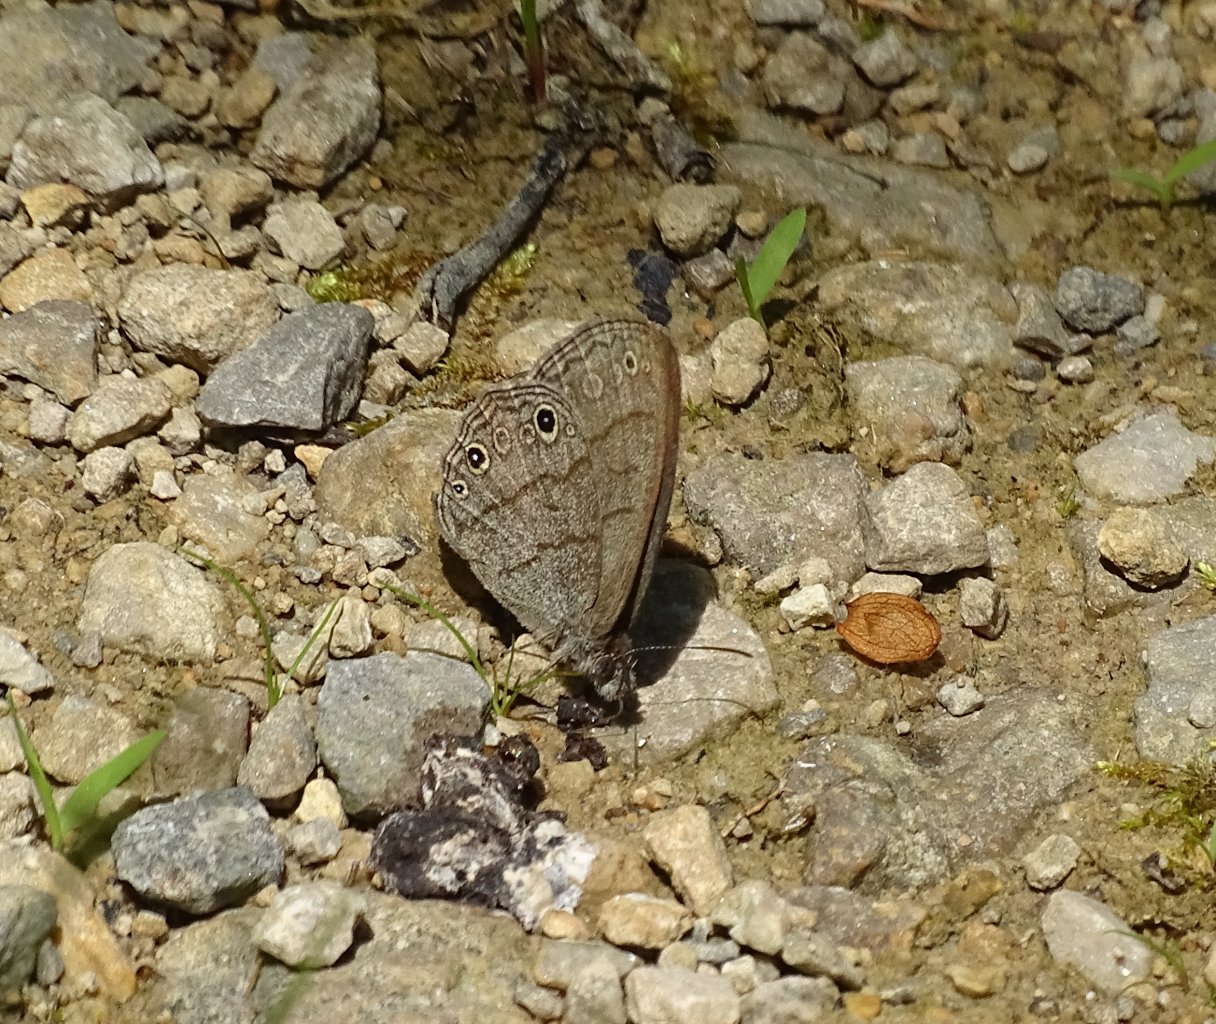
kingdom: Animalia
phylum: Arthropoda
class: Insecta
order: Lepidoptera
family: Nymphalidae
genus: Hermeuptychia
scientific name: Hermeuptychia hermes
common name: Carolina Satyr
